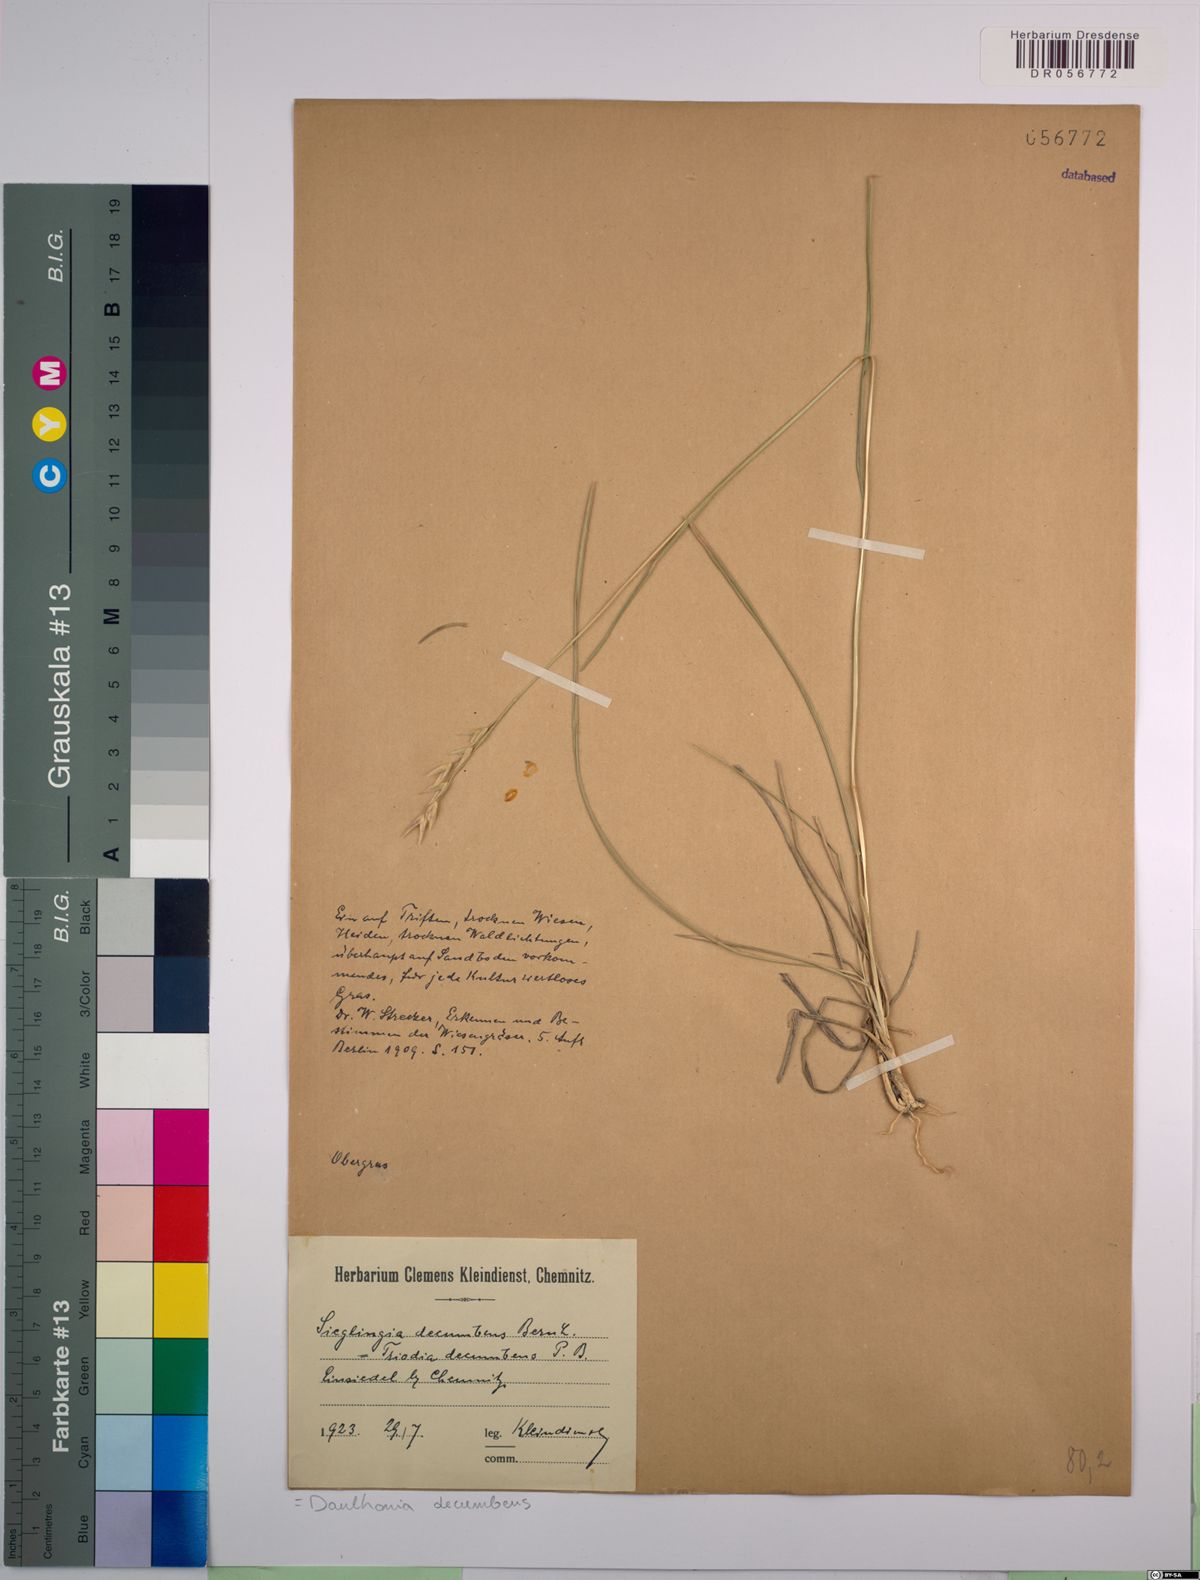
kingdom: Plantae
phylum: Tracheophyta
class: Liliopsida
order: Poales
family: Poaceae
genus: Danthonia
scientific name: Danthonia decumbens
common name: Common heathgrass
